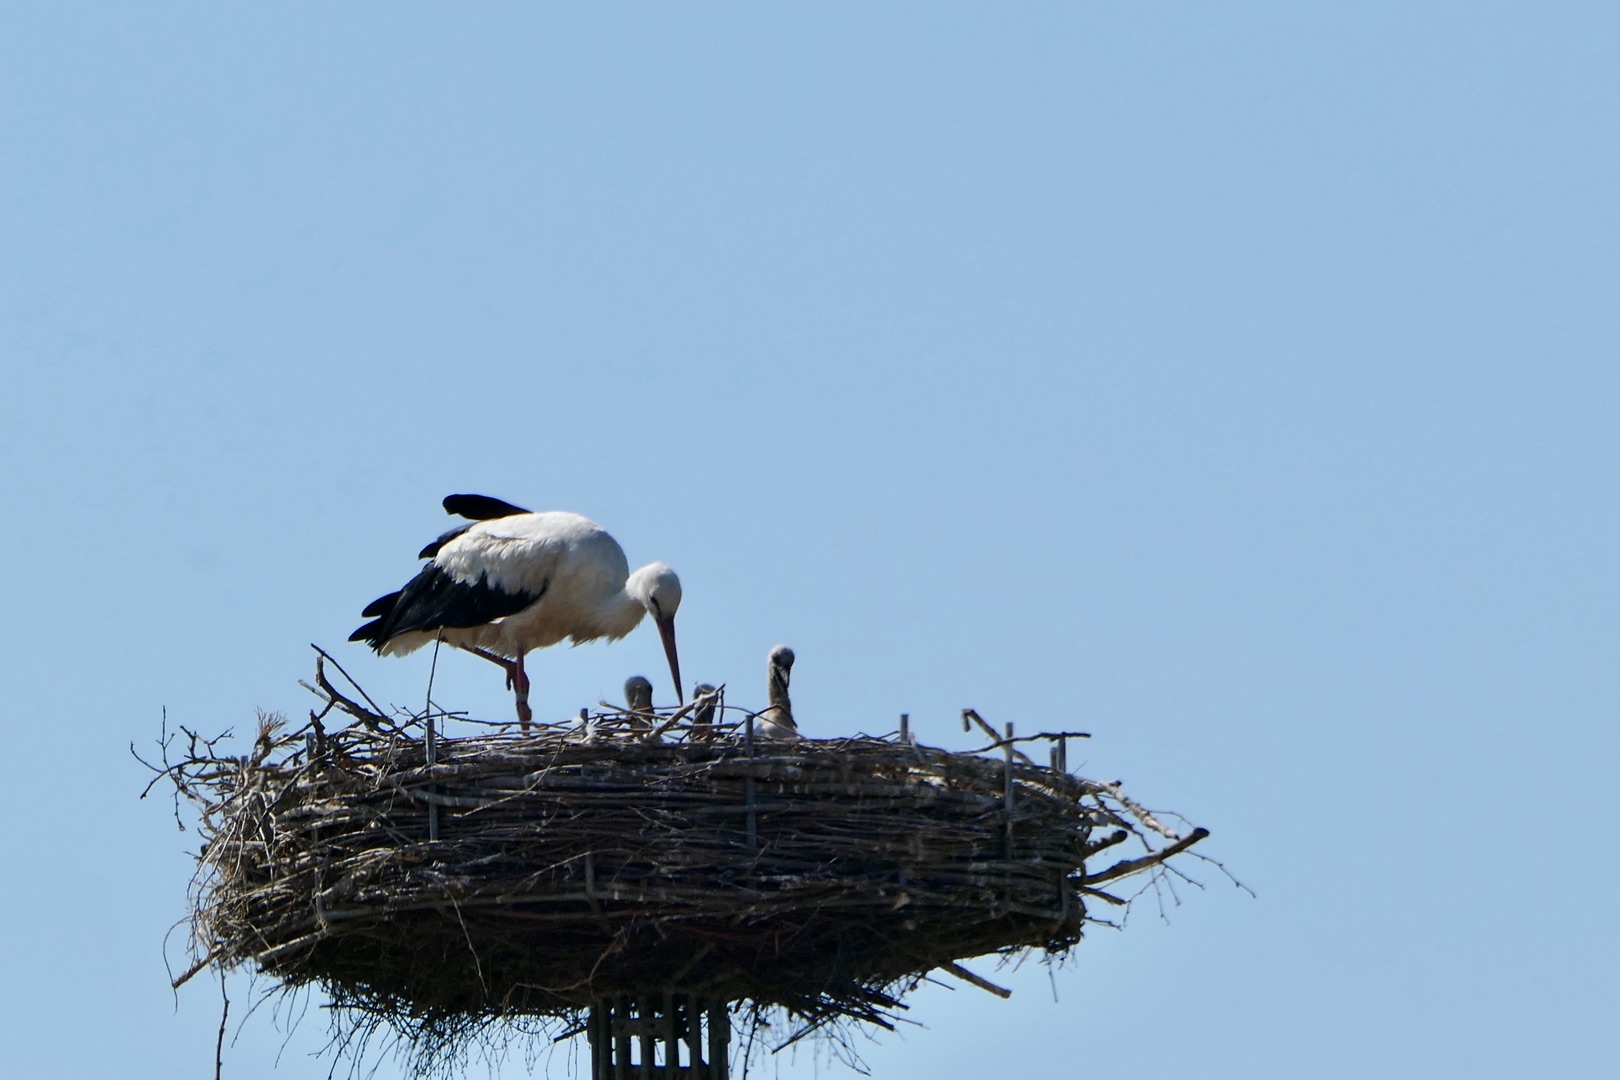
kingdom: Animalia
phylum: Chordata
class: Aves
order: Ciconiiformes
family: Ciconiidae
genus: Ciconia
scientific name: Ciconia ciconia
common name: Hvid stork
